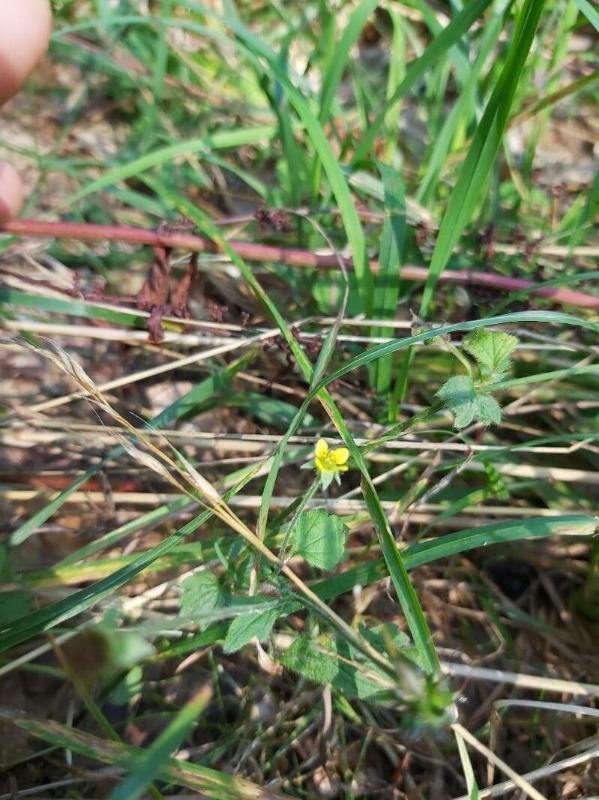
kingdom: Plantae
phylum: Tracheophyta
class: Magnoliopsida
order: Rosales
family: Rosaceae
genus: Geum
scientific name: Geum urbanum
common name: Feber-nellikerod
